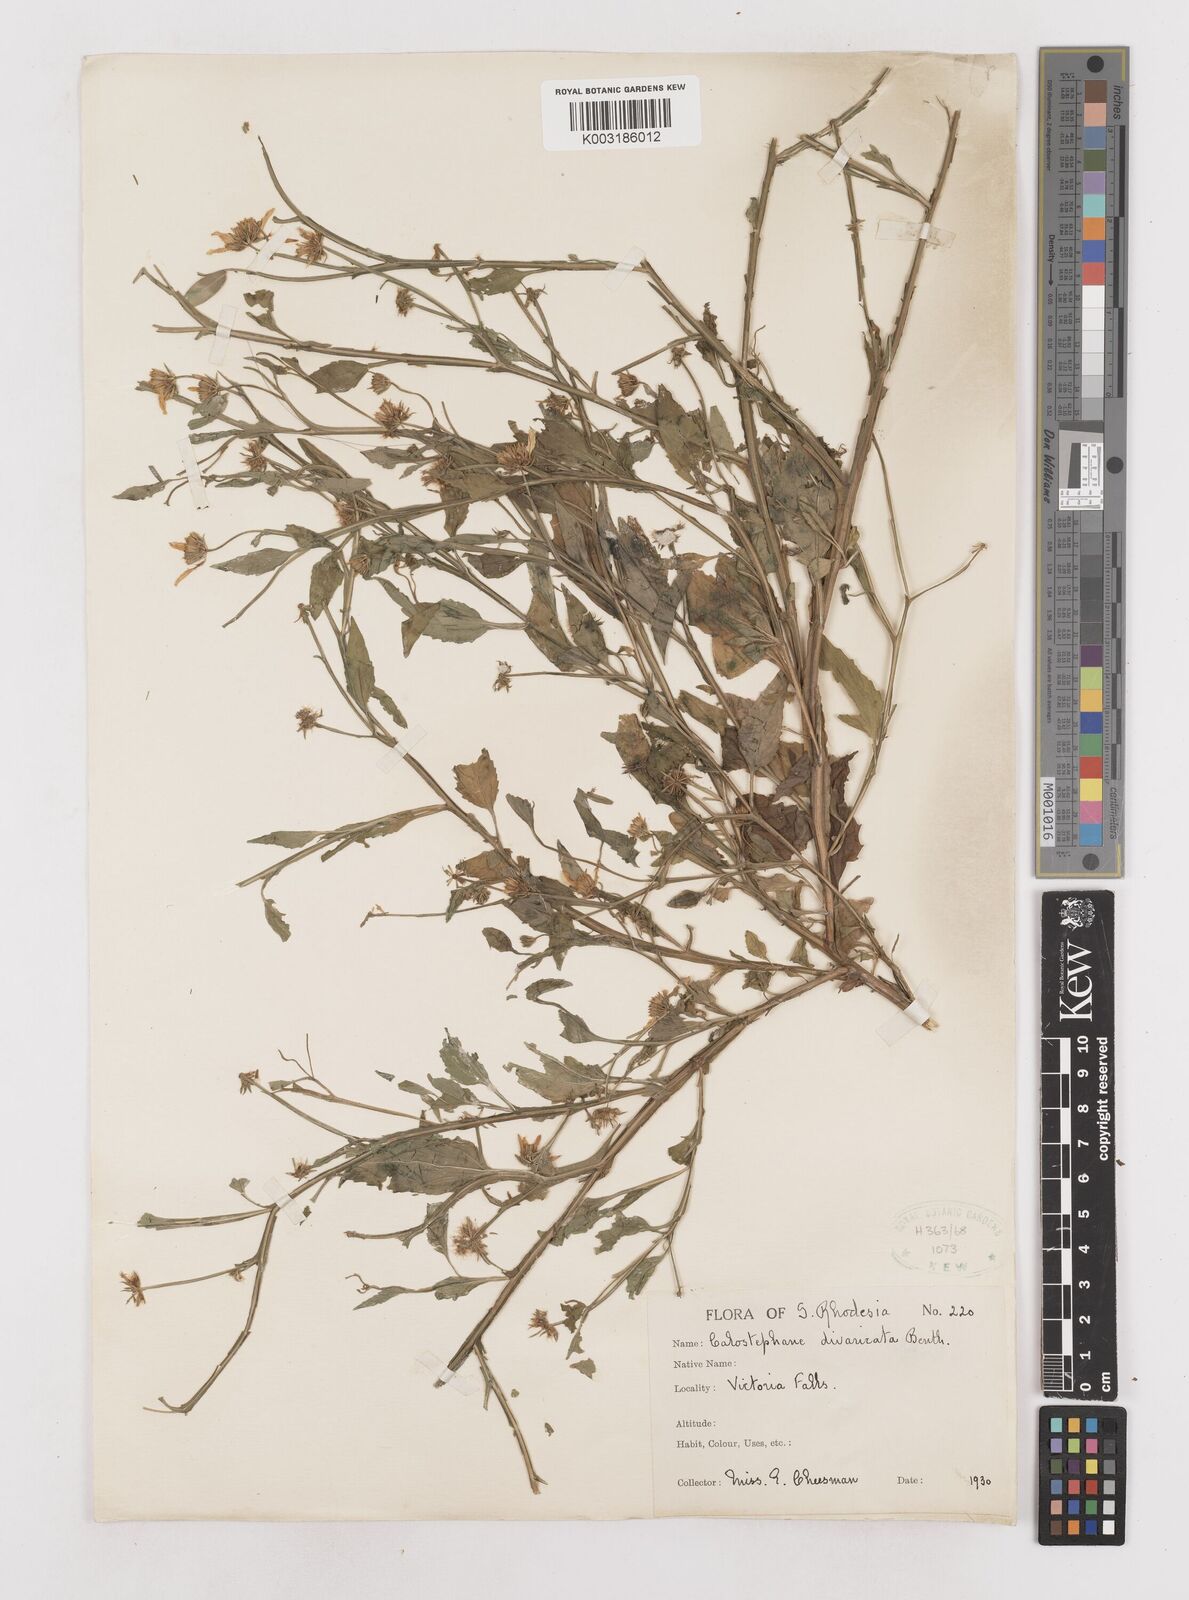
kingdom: Plantae
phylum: Tracheophyta
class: Magnoliopsida
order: Asterales
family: Asteraceae
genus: Calostephane
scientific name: Calostephane divaricata
